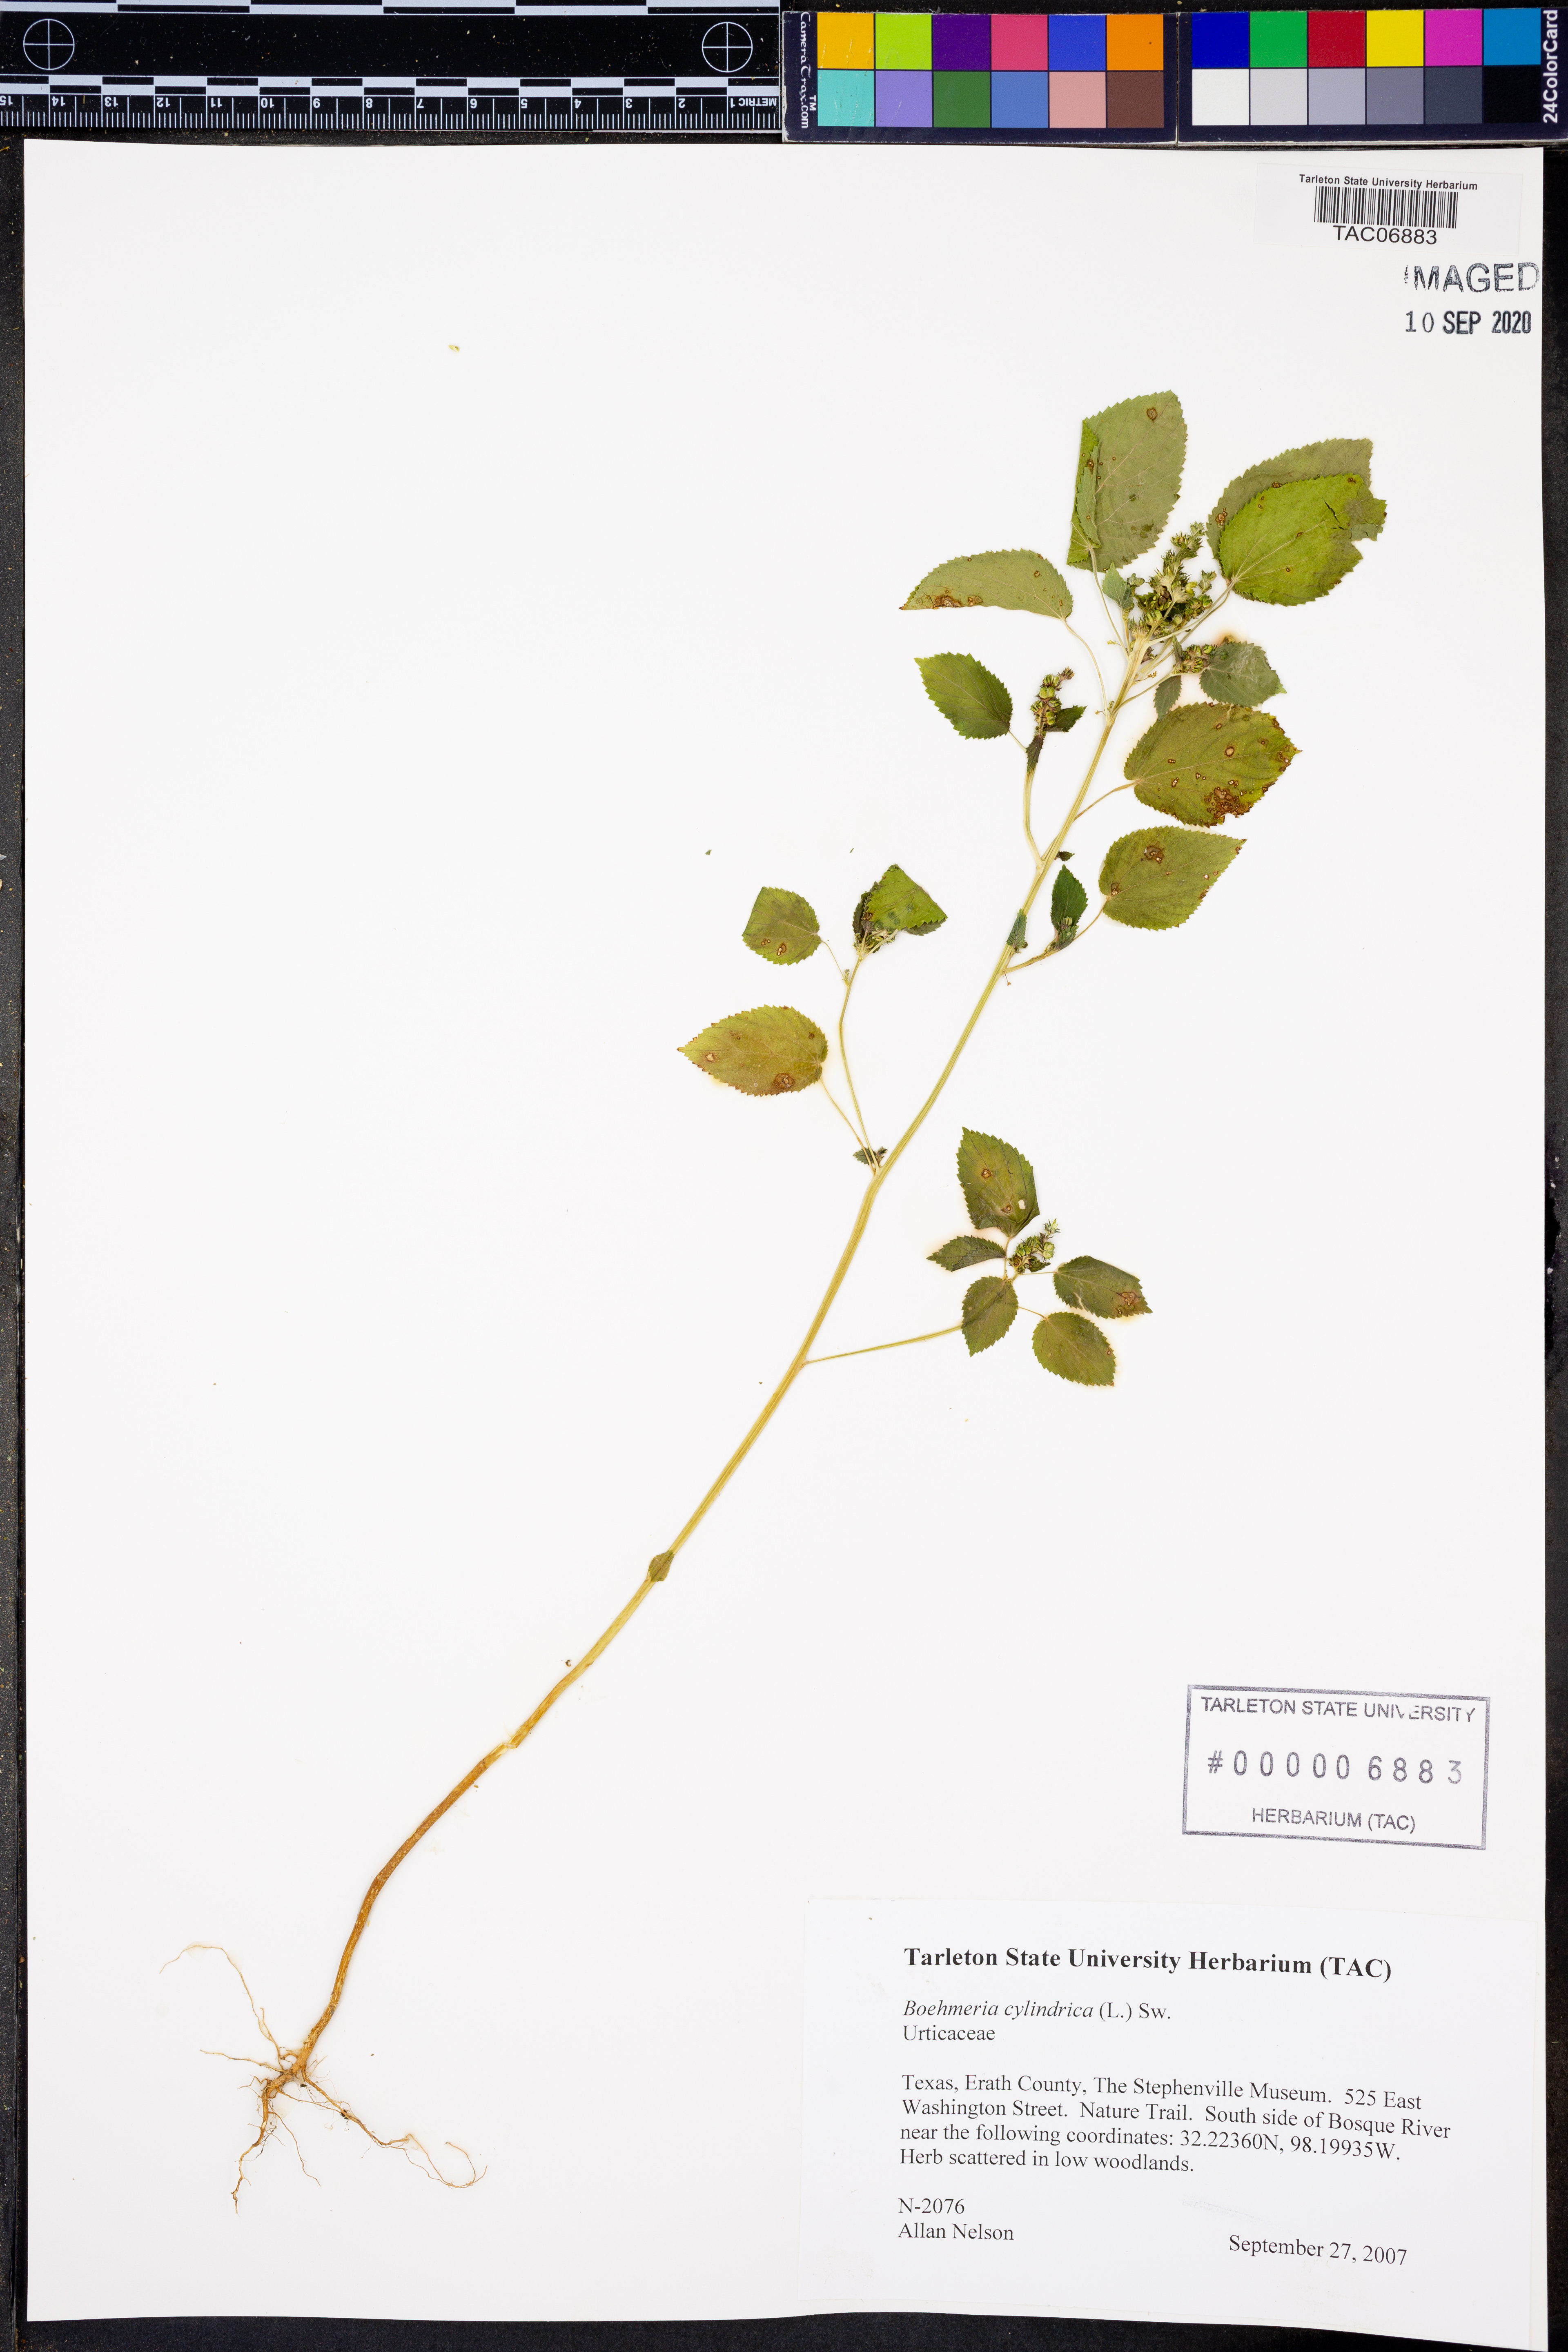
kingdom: Plantae
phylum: Tracheophyta
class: Magnoliopsida
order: Rosales
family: Urticaceae
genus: Boehmeria
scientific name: Boehmeria cylindrica
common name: Bog-hemp
